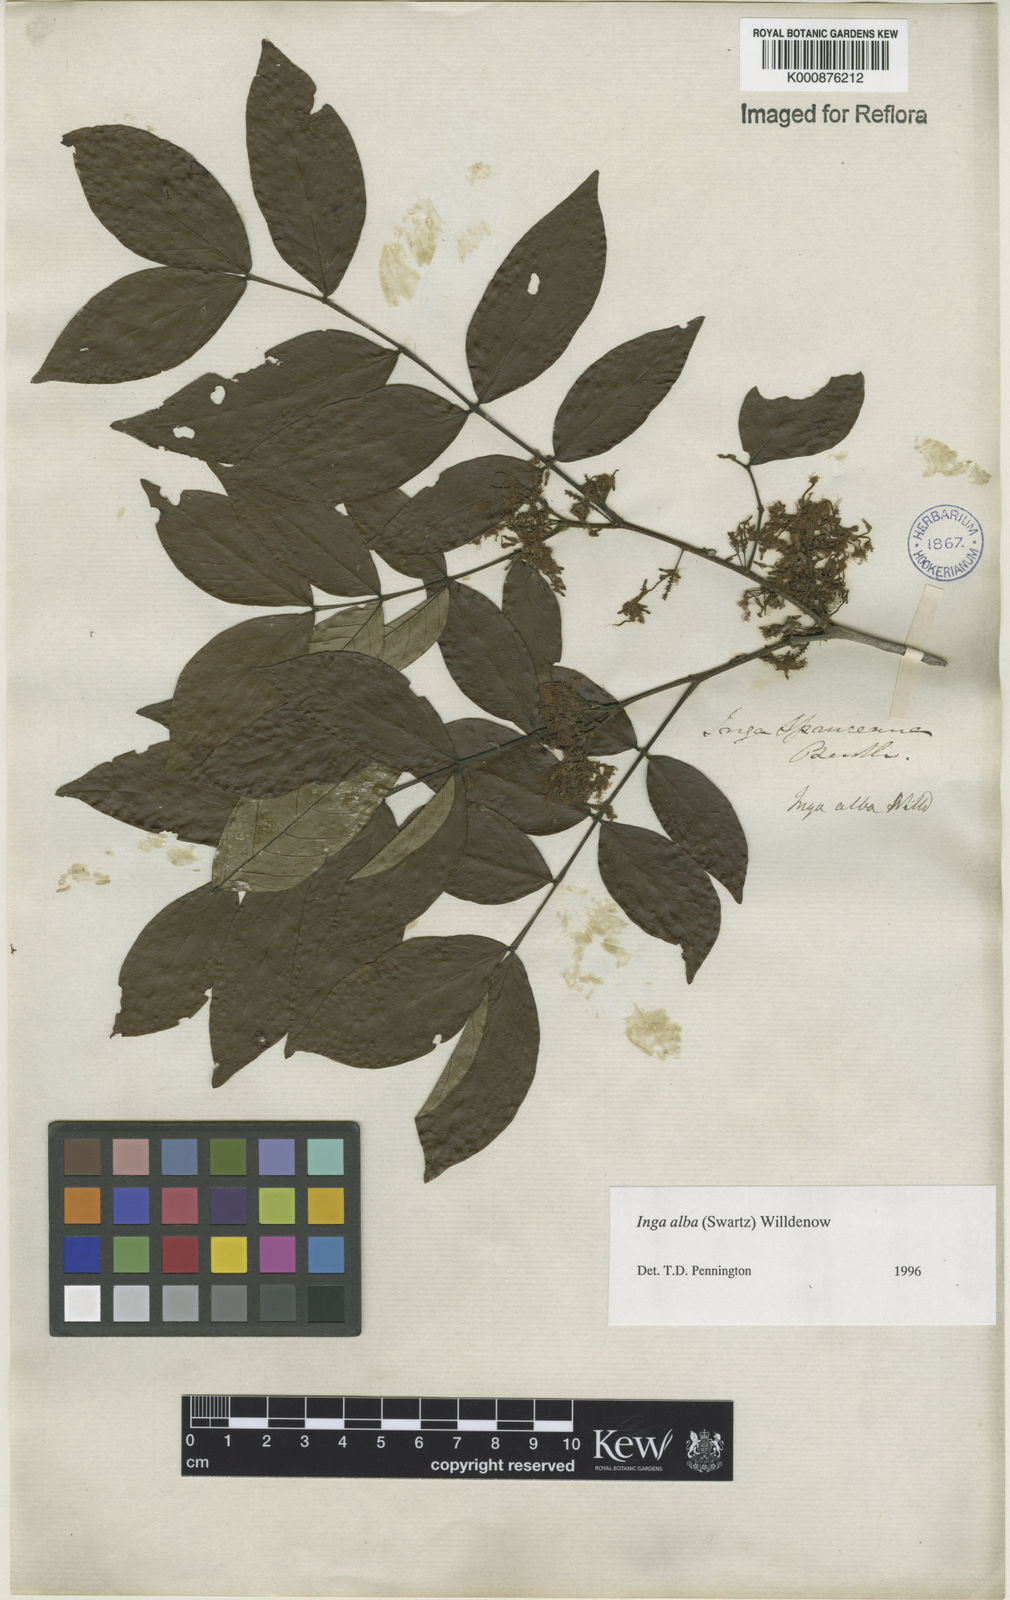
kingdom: Plantae
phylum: Tracheophyta
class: Magnoliopsida
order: Fabales
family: Fabaceae
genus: Inga
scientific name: Inga alba
